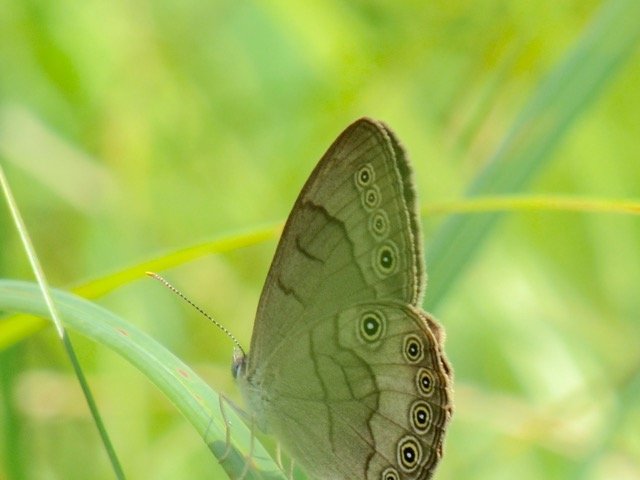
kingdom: Animalia
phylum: Arthropoda
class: Insecta
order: Lepidoptera
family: Nymphalidae
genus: Lethe
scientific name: Lethe eurydice
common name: Appalachian Eyed Brown
